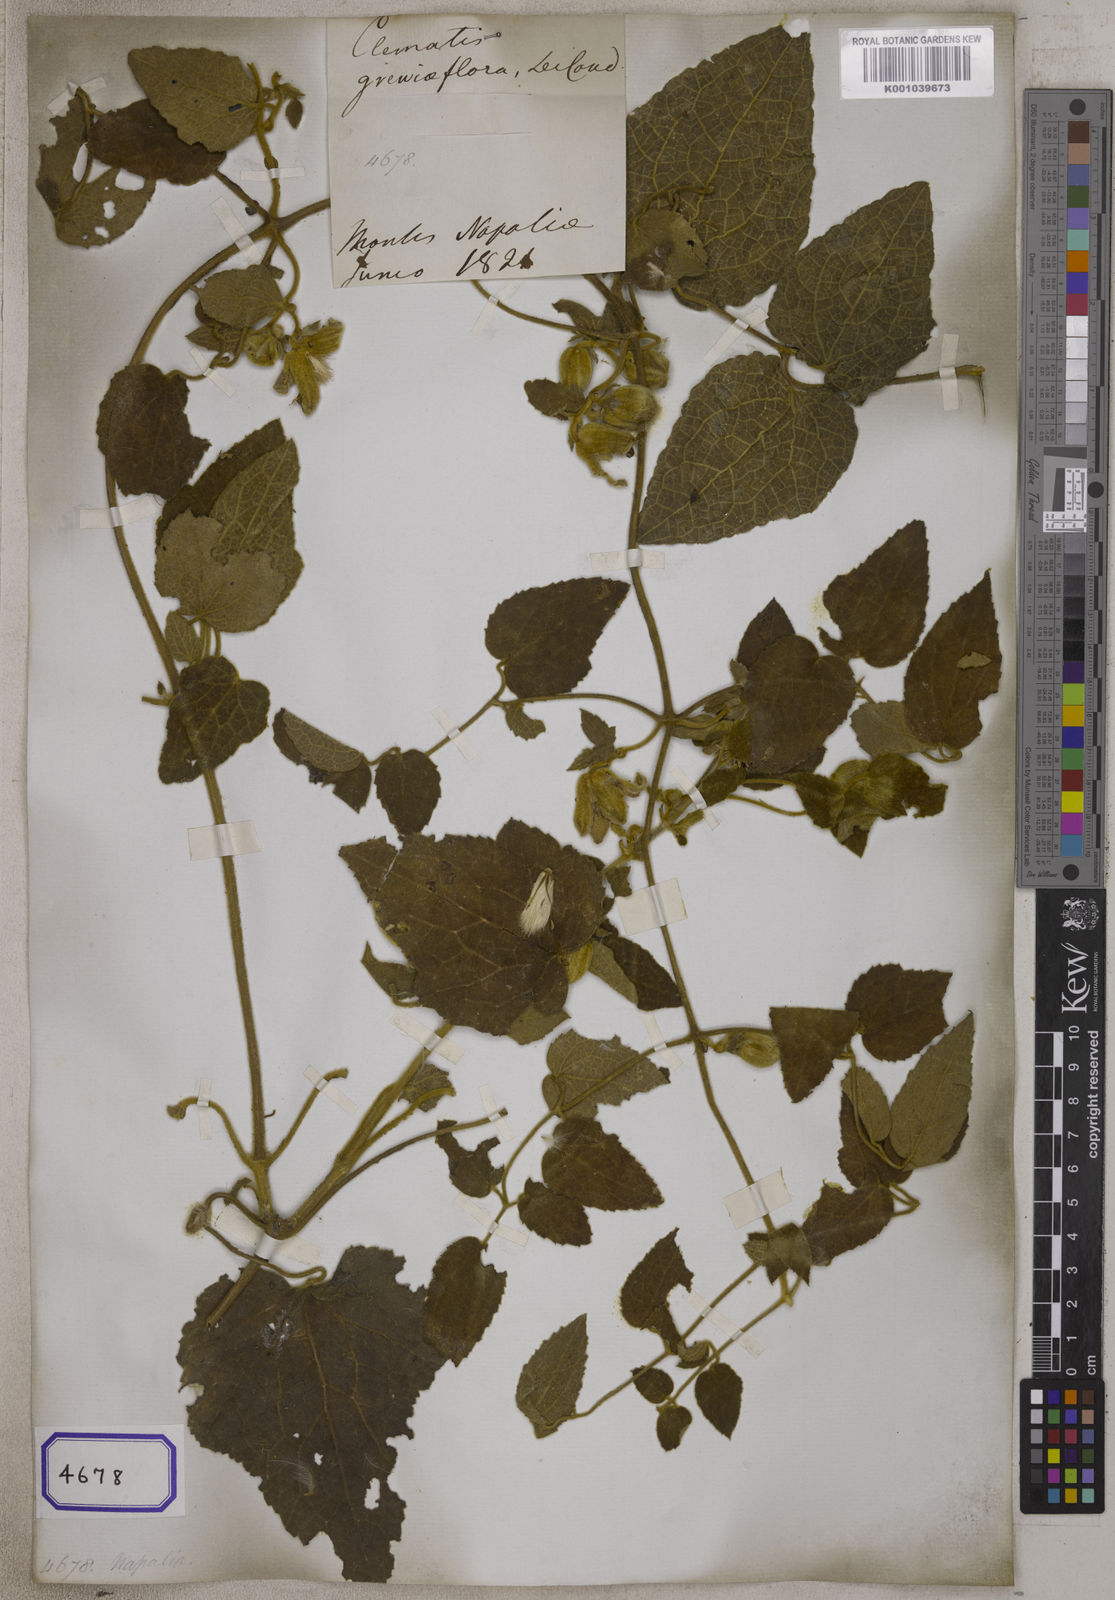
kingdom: Plantae
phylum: Tracheophyta
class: Magnoliopsida
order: Ranunculales
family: Ranunculaceae
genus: Clematis
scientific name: Clematis grewiiflora
